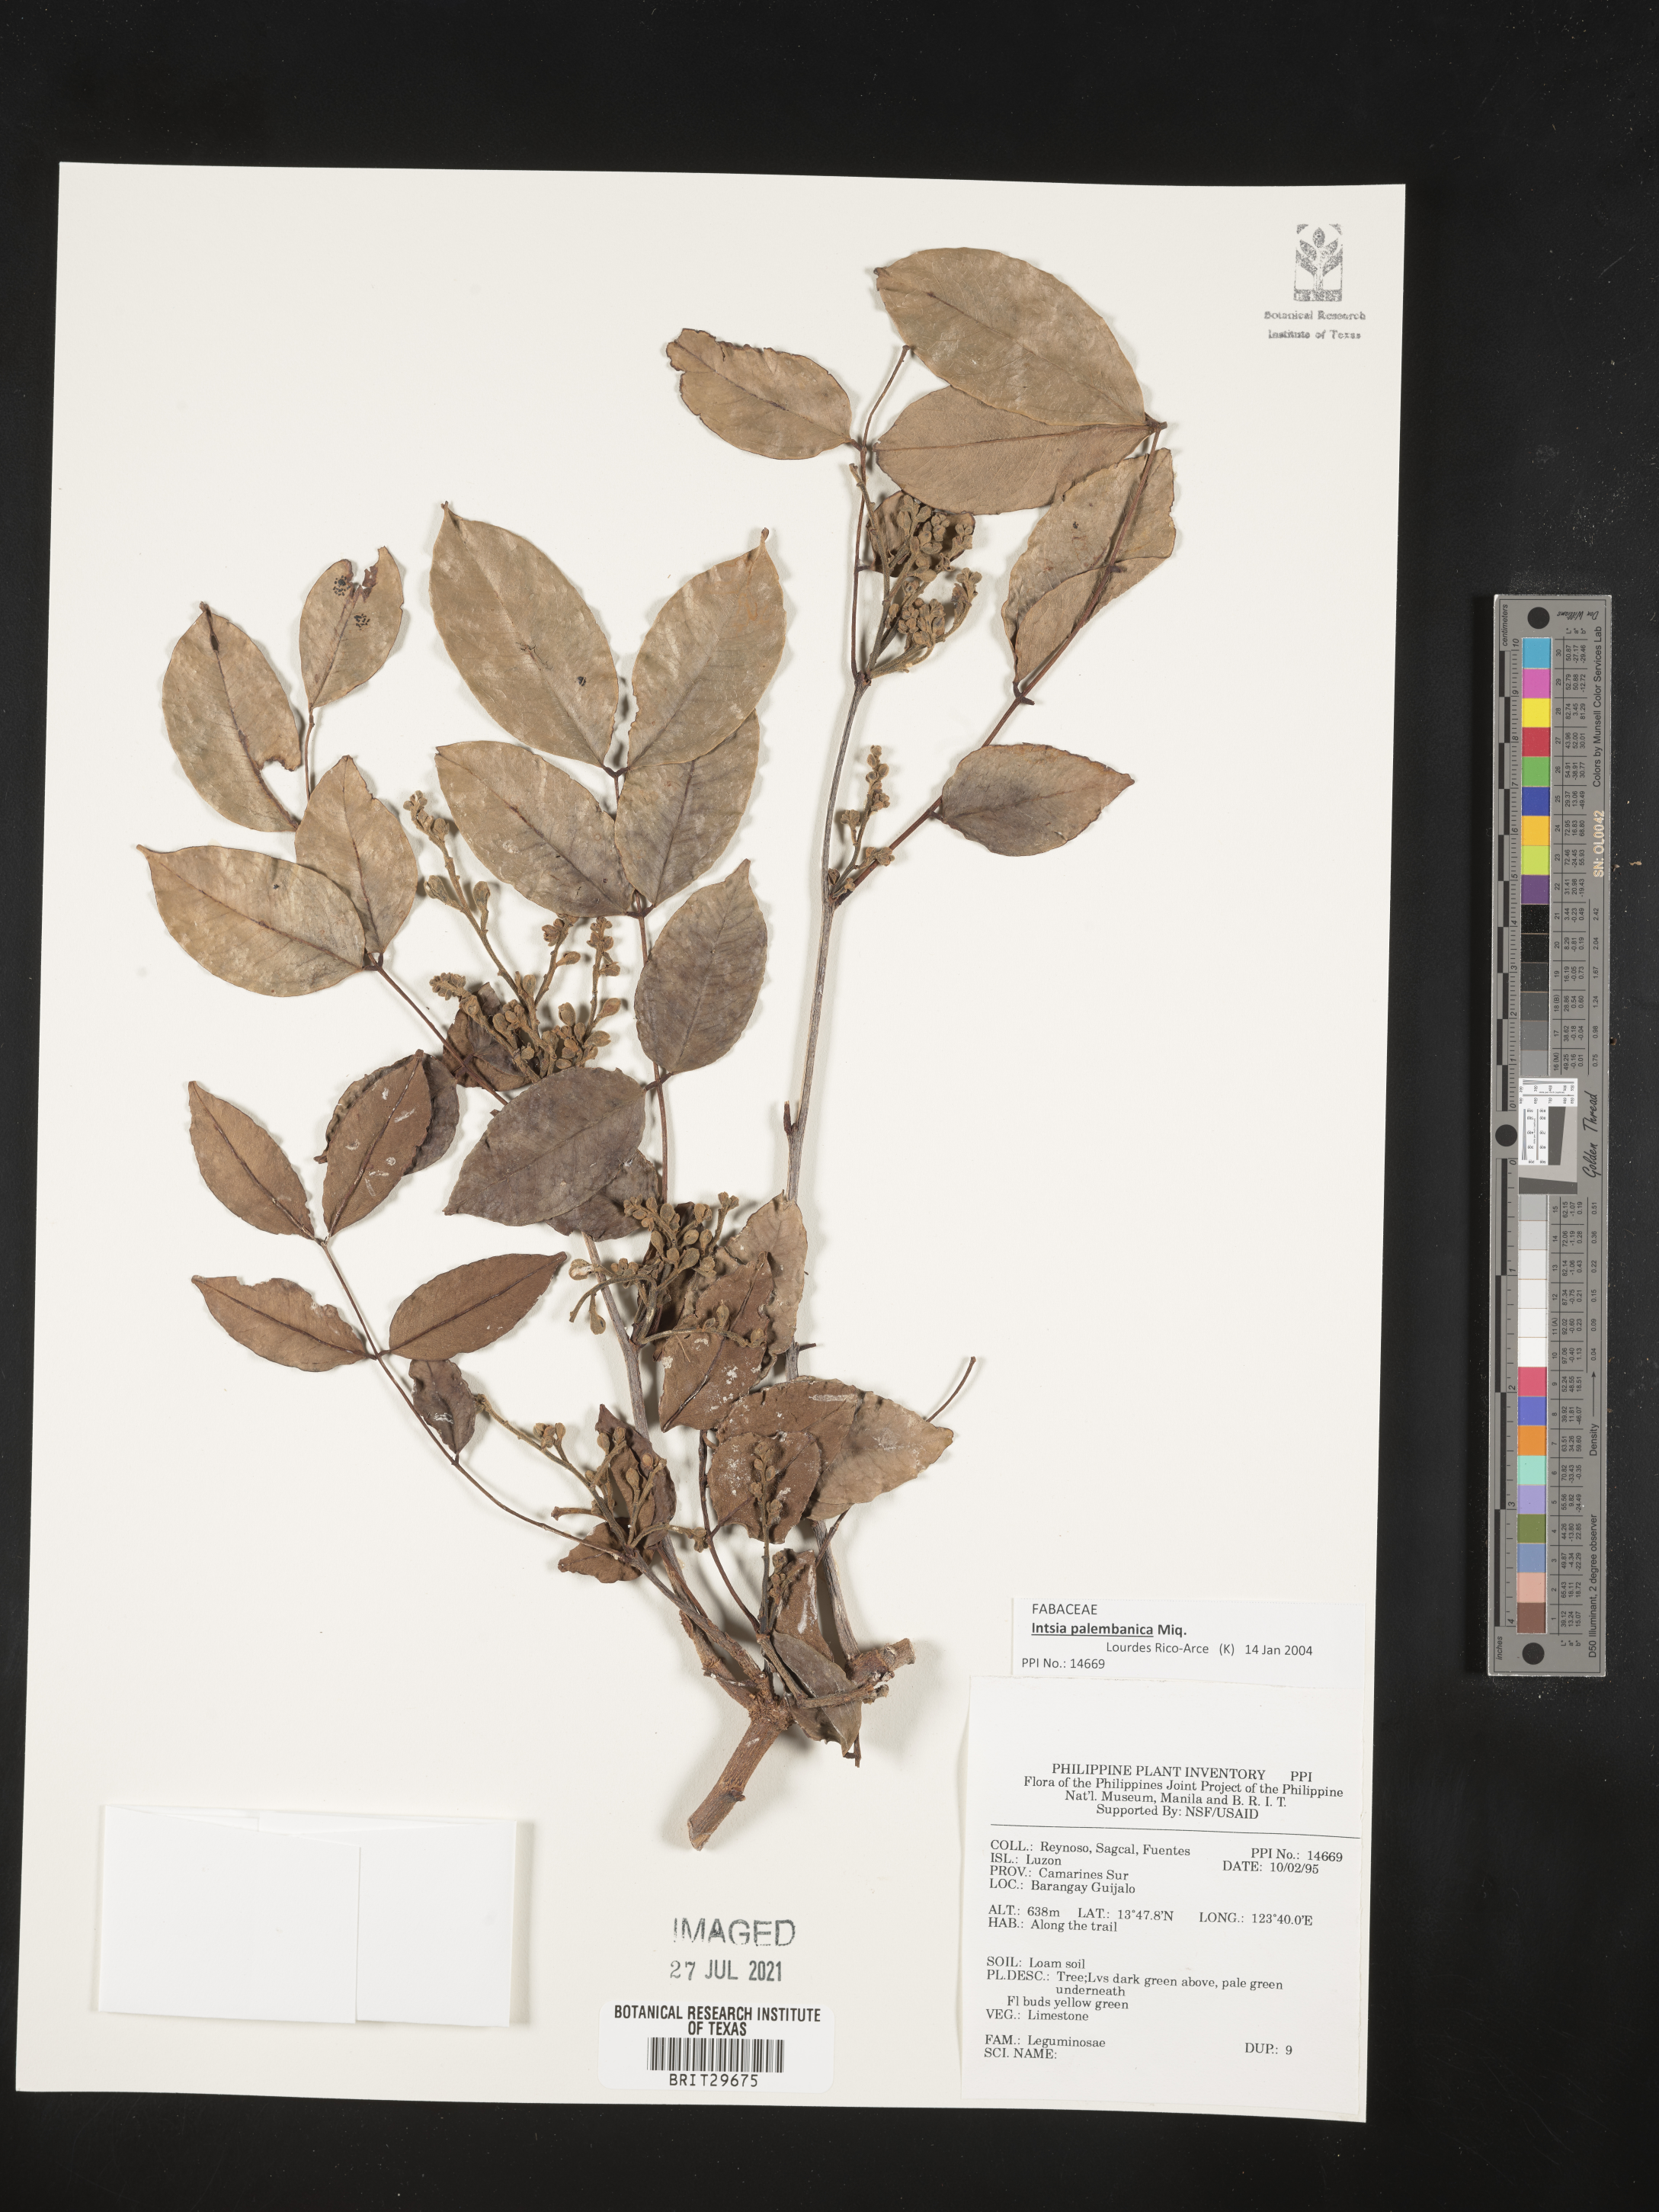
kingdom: Plantae
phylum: Tracheophyta
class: Magnoliopsida
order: Fabales
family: Fabaceae
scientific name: Fabaceae
